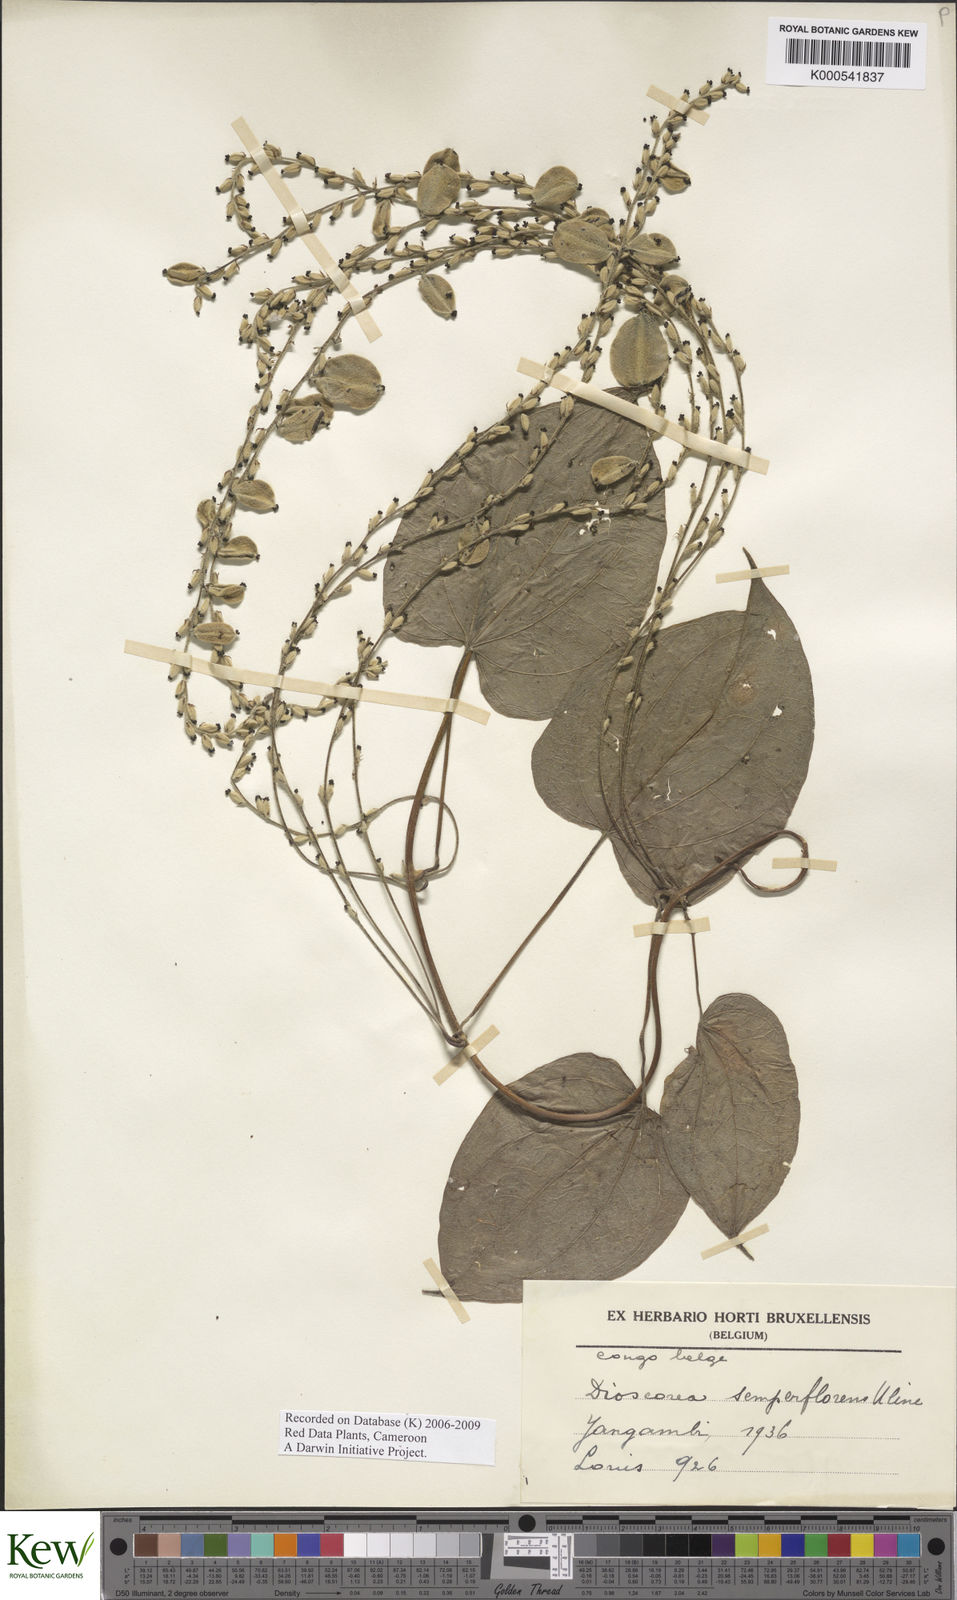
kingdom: Plantae
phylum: Tracheophyta
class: Liliopsida
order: Dioscoreales
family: Dioscoreaceae
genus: Dioscorea
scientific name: Dioscorea semperflorens
